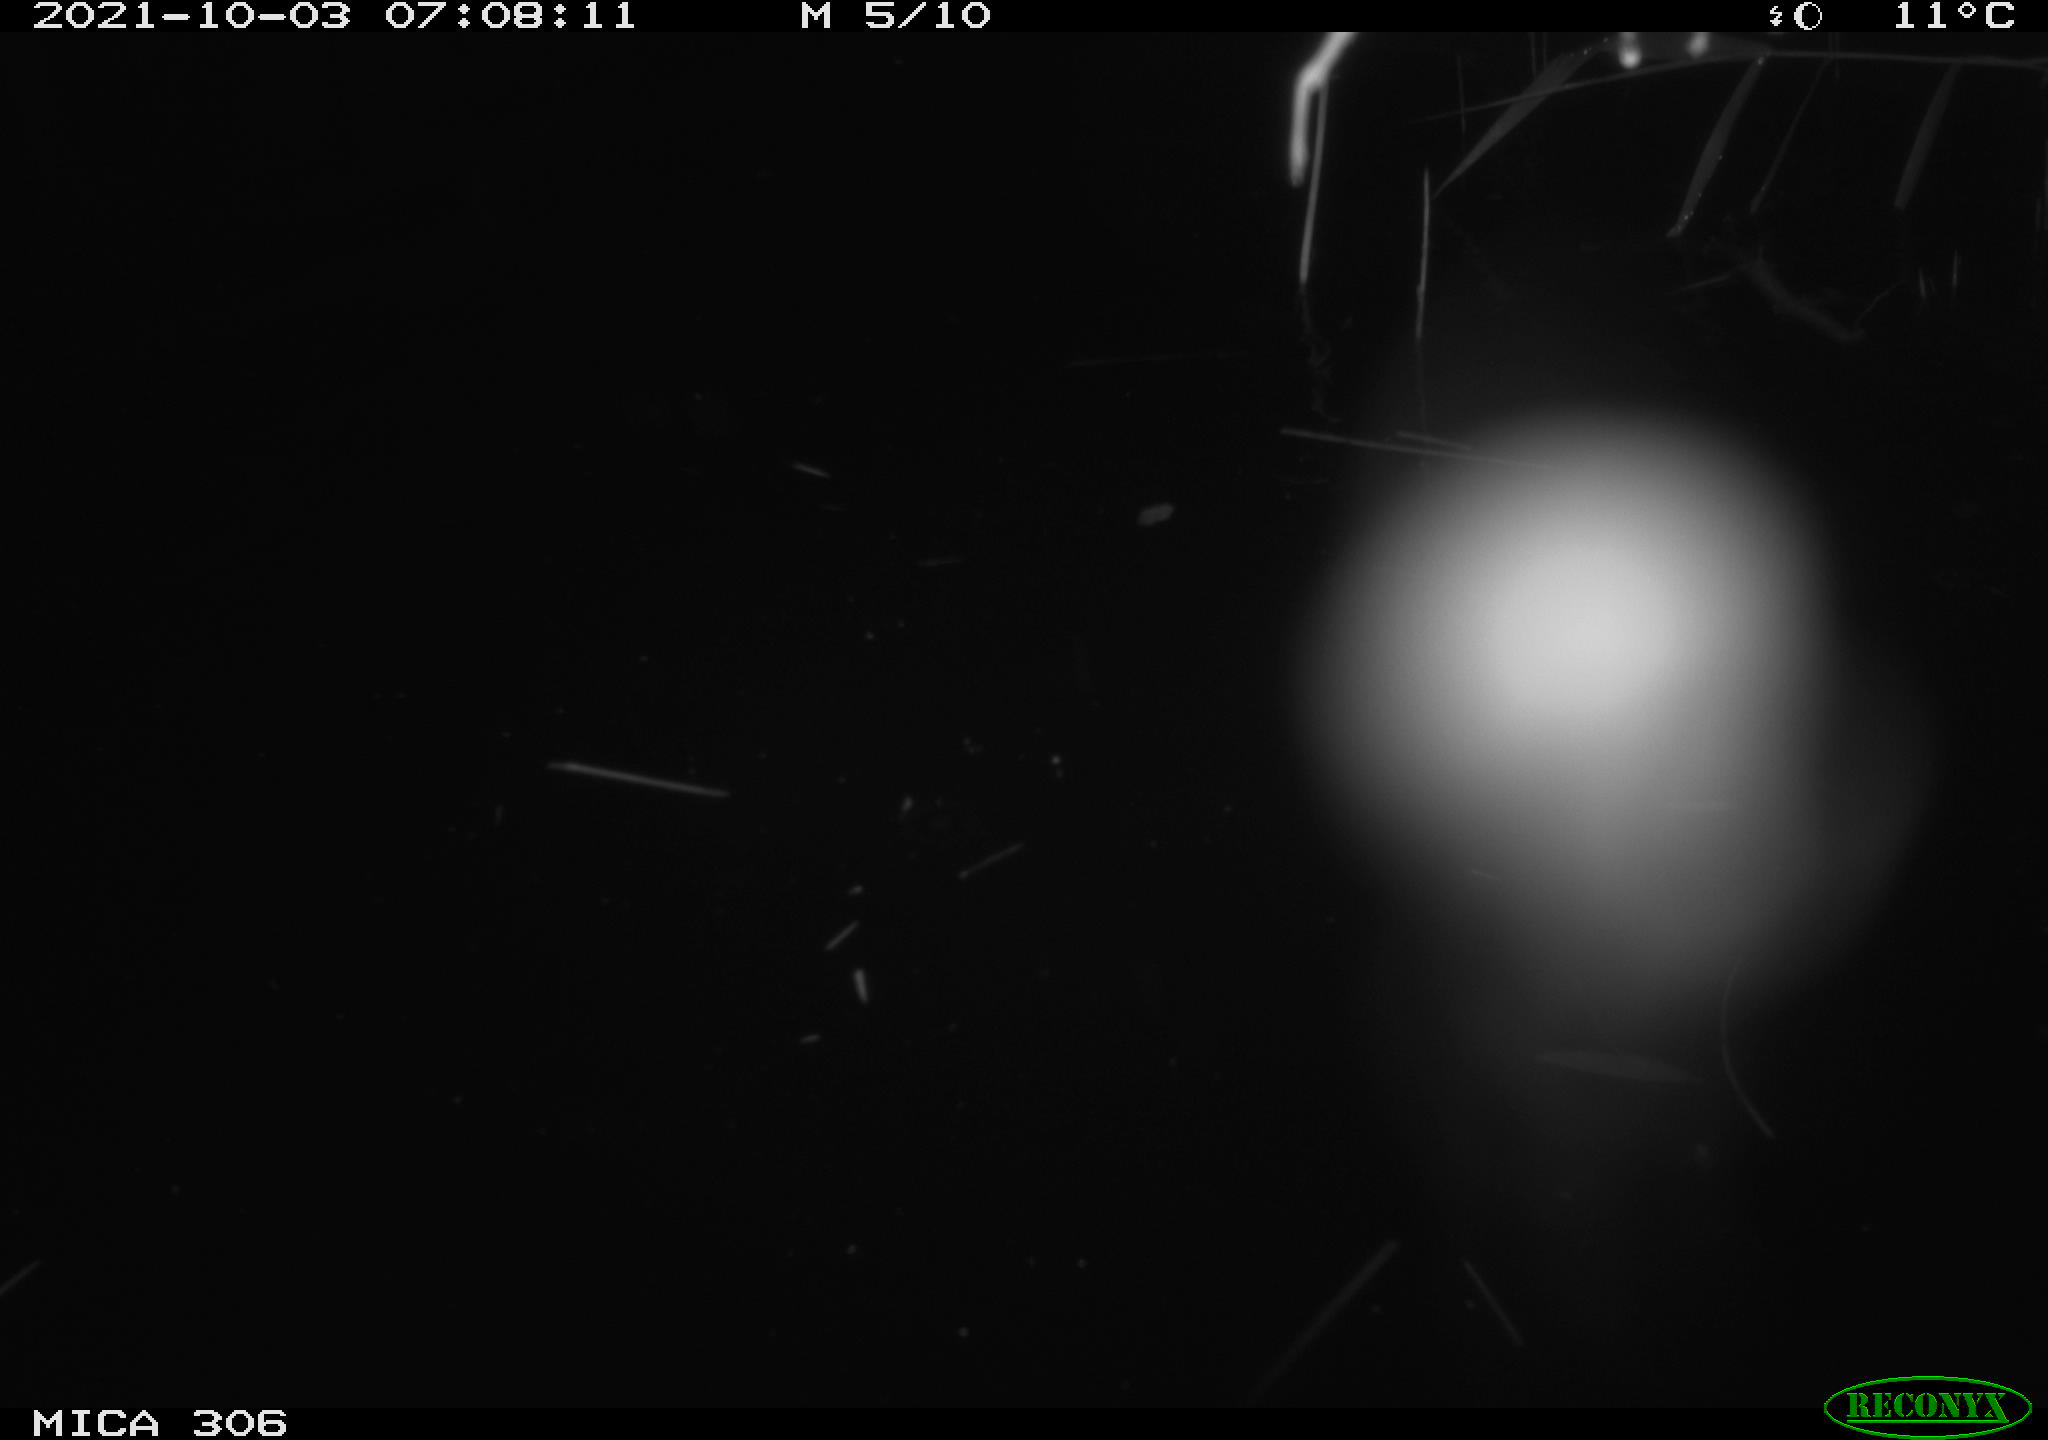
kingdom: Animalia
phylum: Chordata
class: Mammalia
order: Rodentia
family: Cricetidae
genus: Ondatra
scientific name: Ondatra zibethicus
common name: Muskrat
